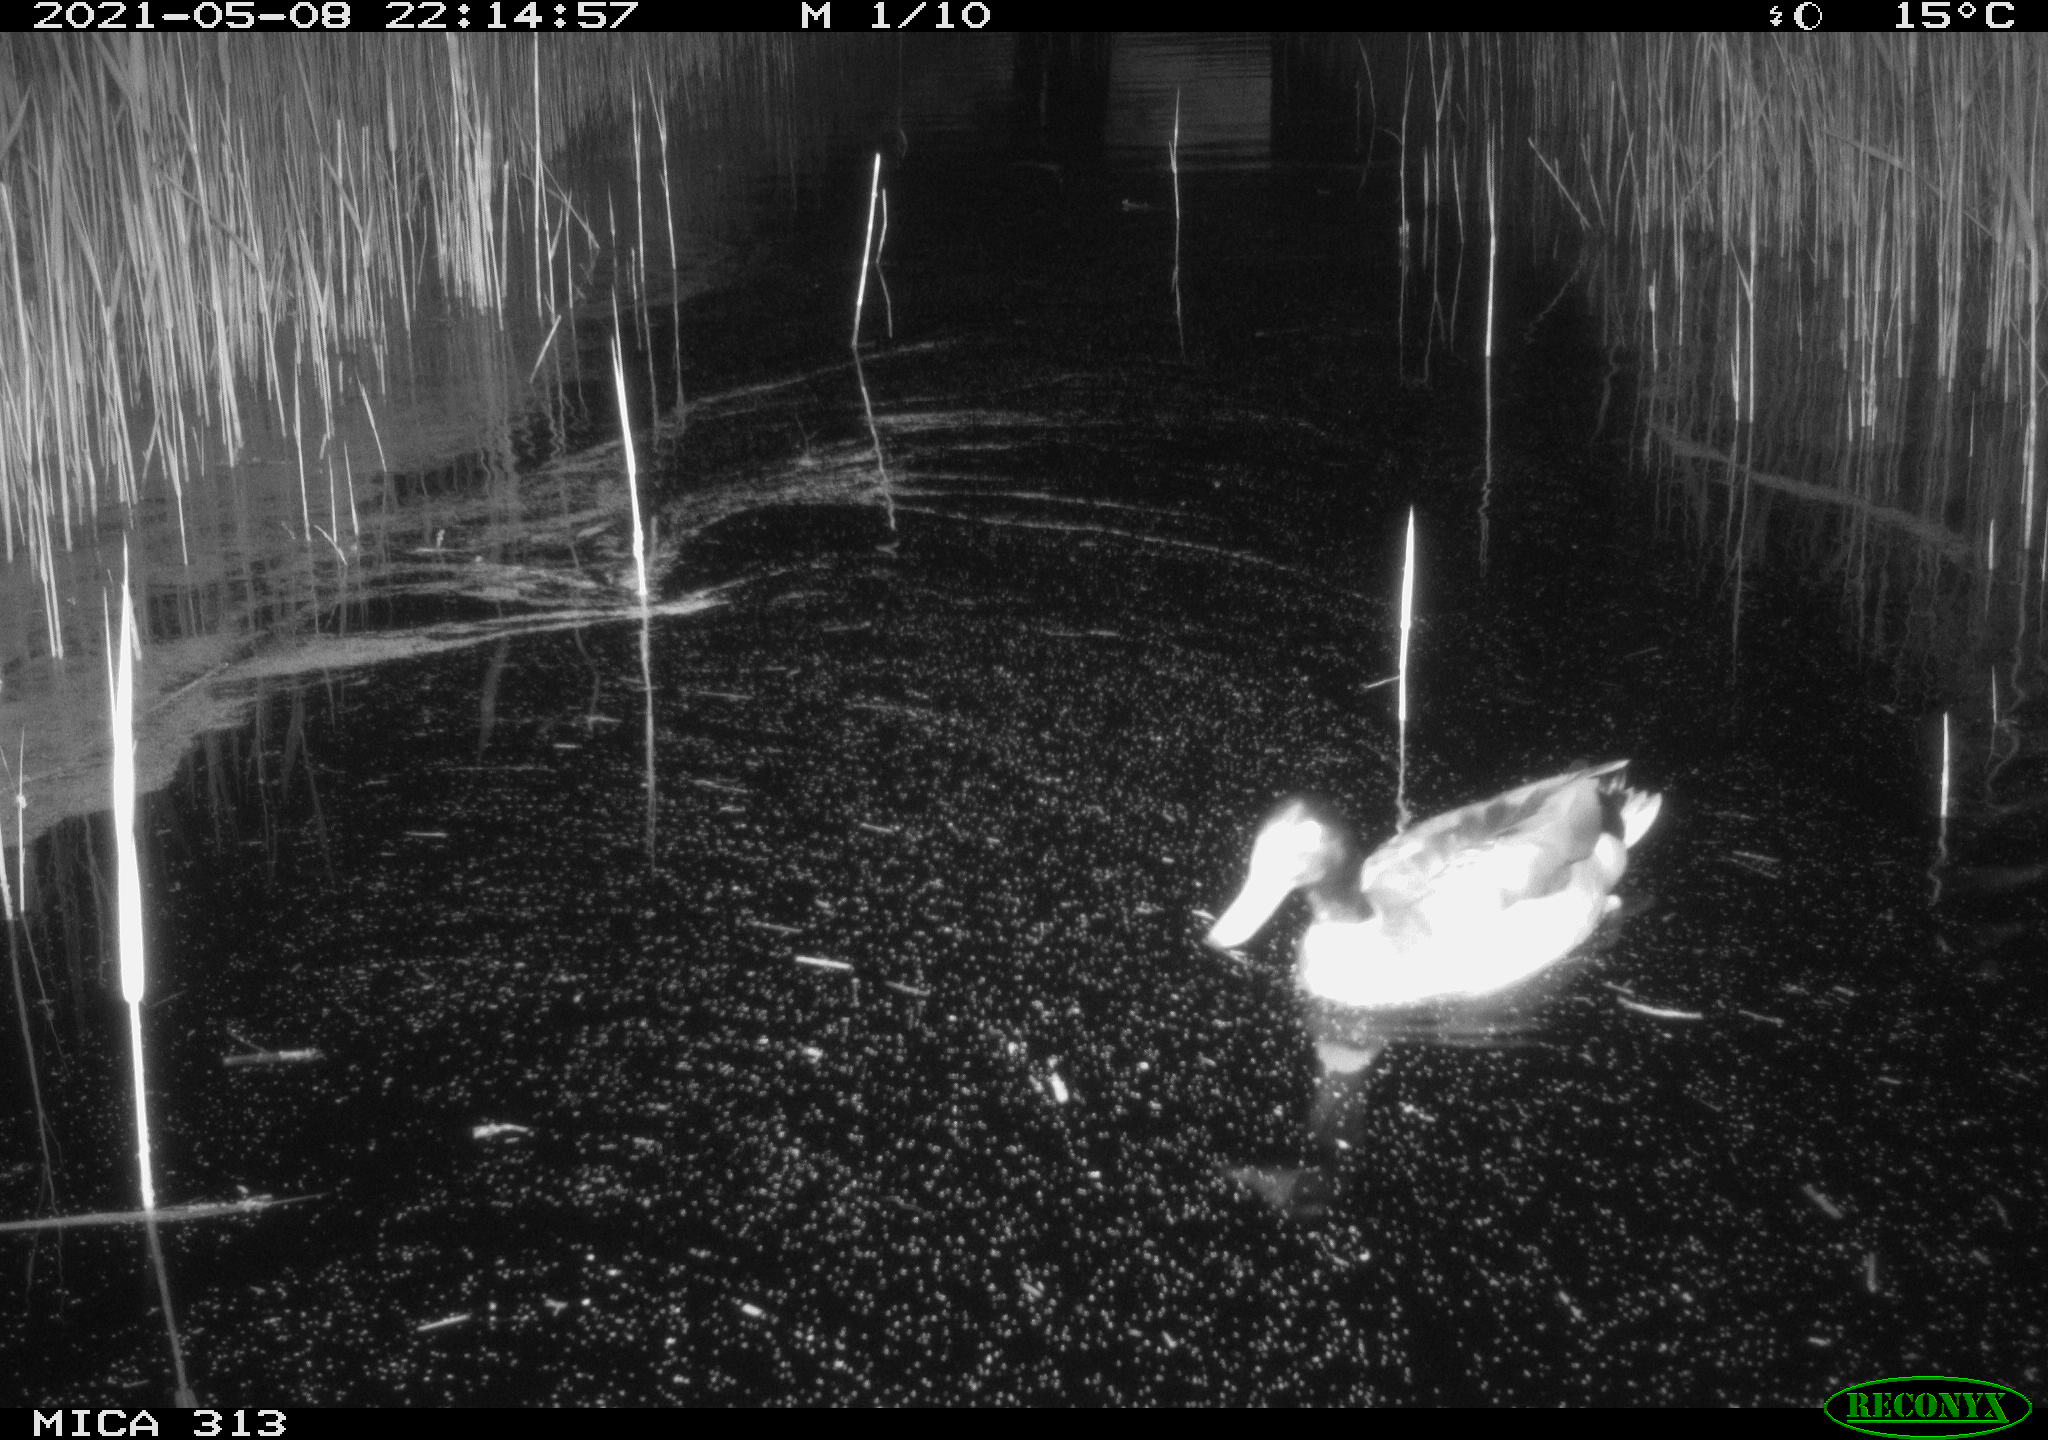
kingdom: Animalia
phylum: Chordata
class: Aves
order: Anseriformes
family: Anatidae
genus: Anas
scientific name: Anas platyrhynchos
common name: Mallard
